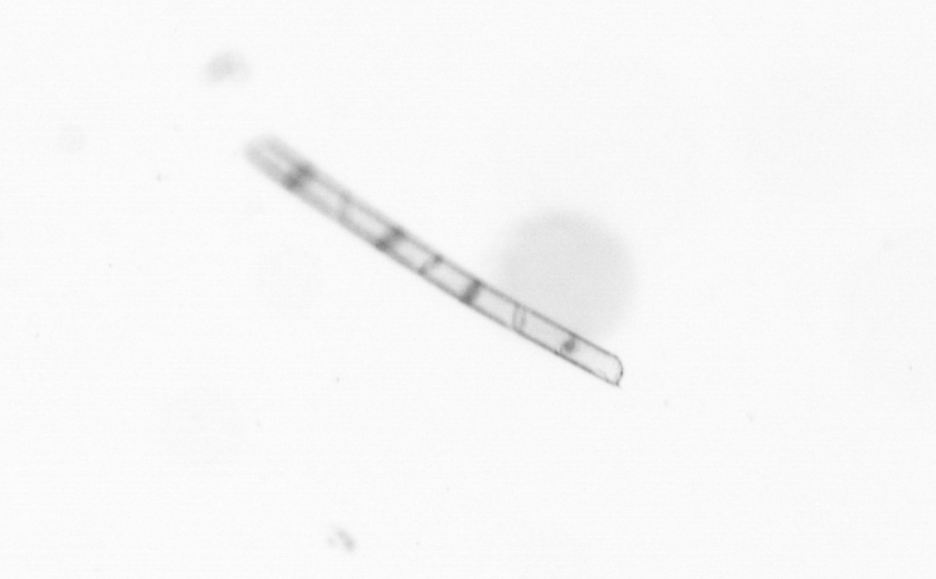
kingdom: Chromista
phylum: Ochrophyta
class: Bacillariophyceae
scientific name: Bacillariophyceae
